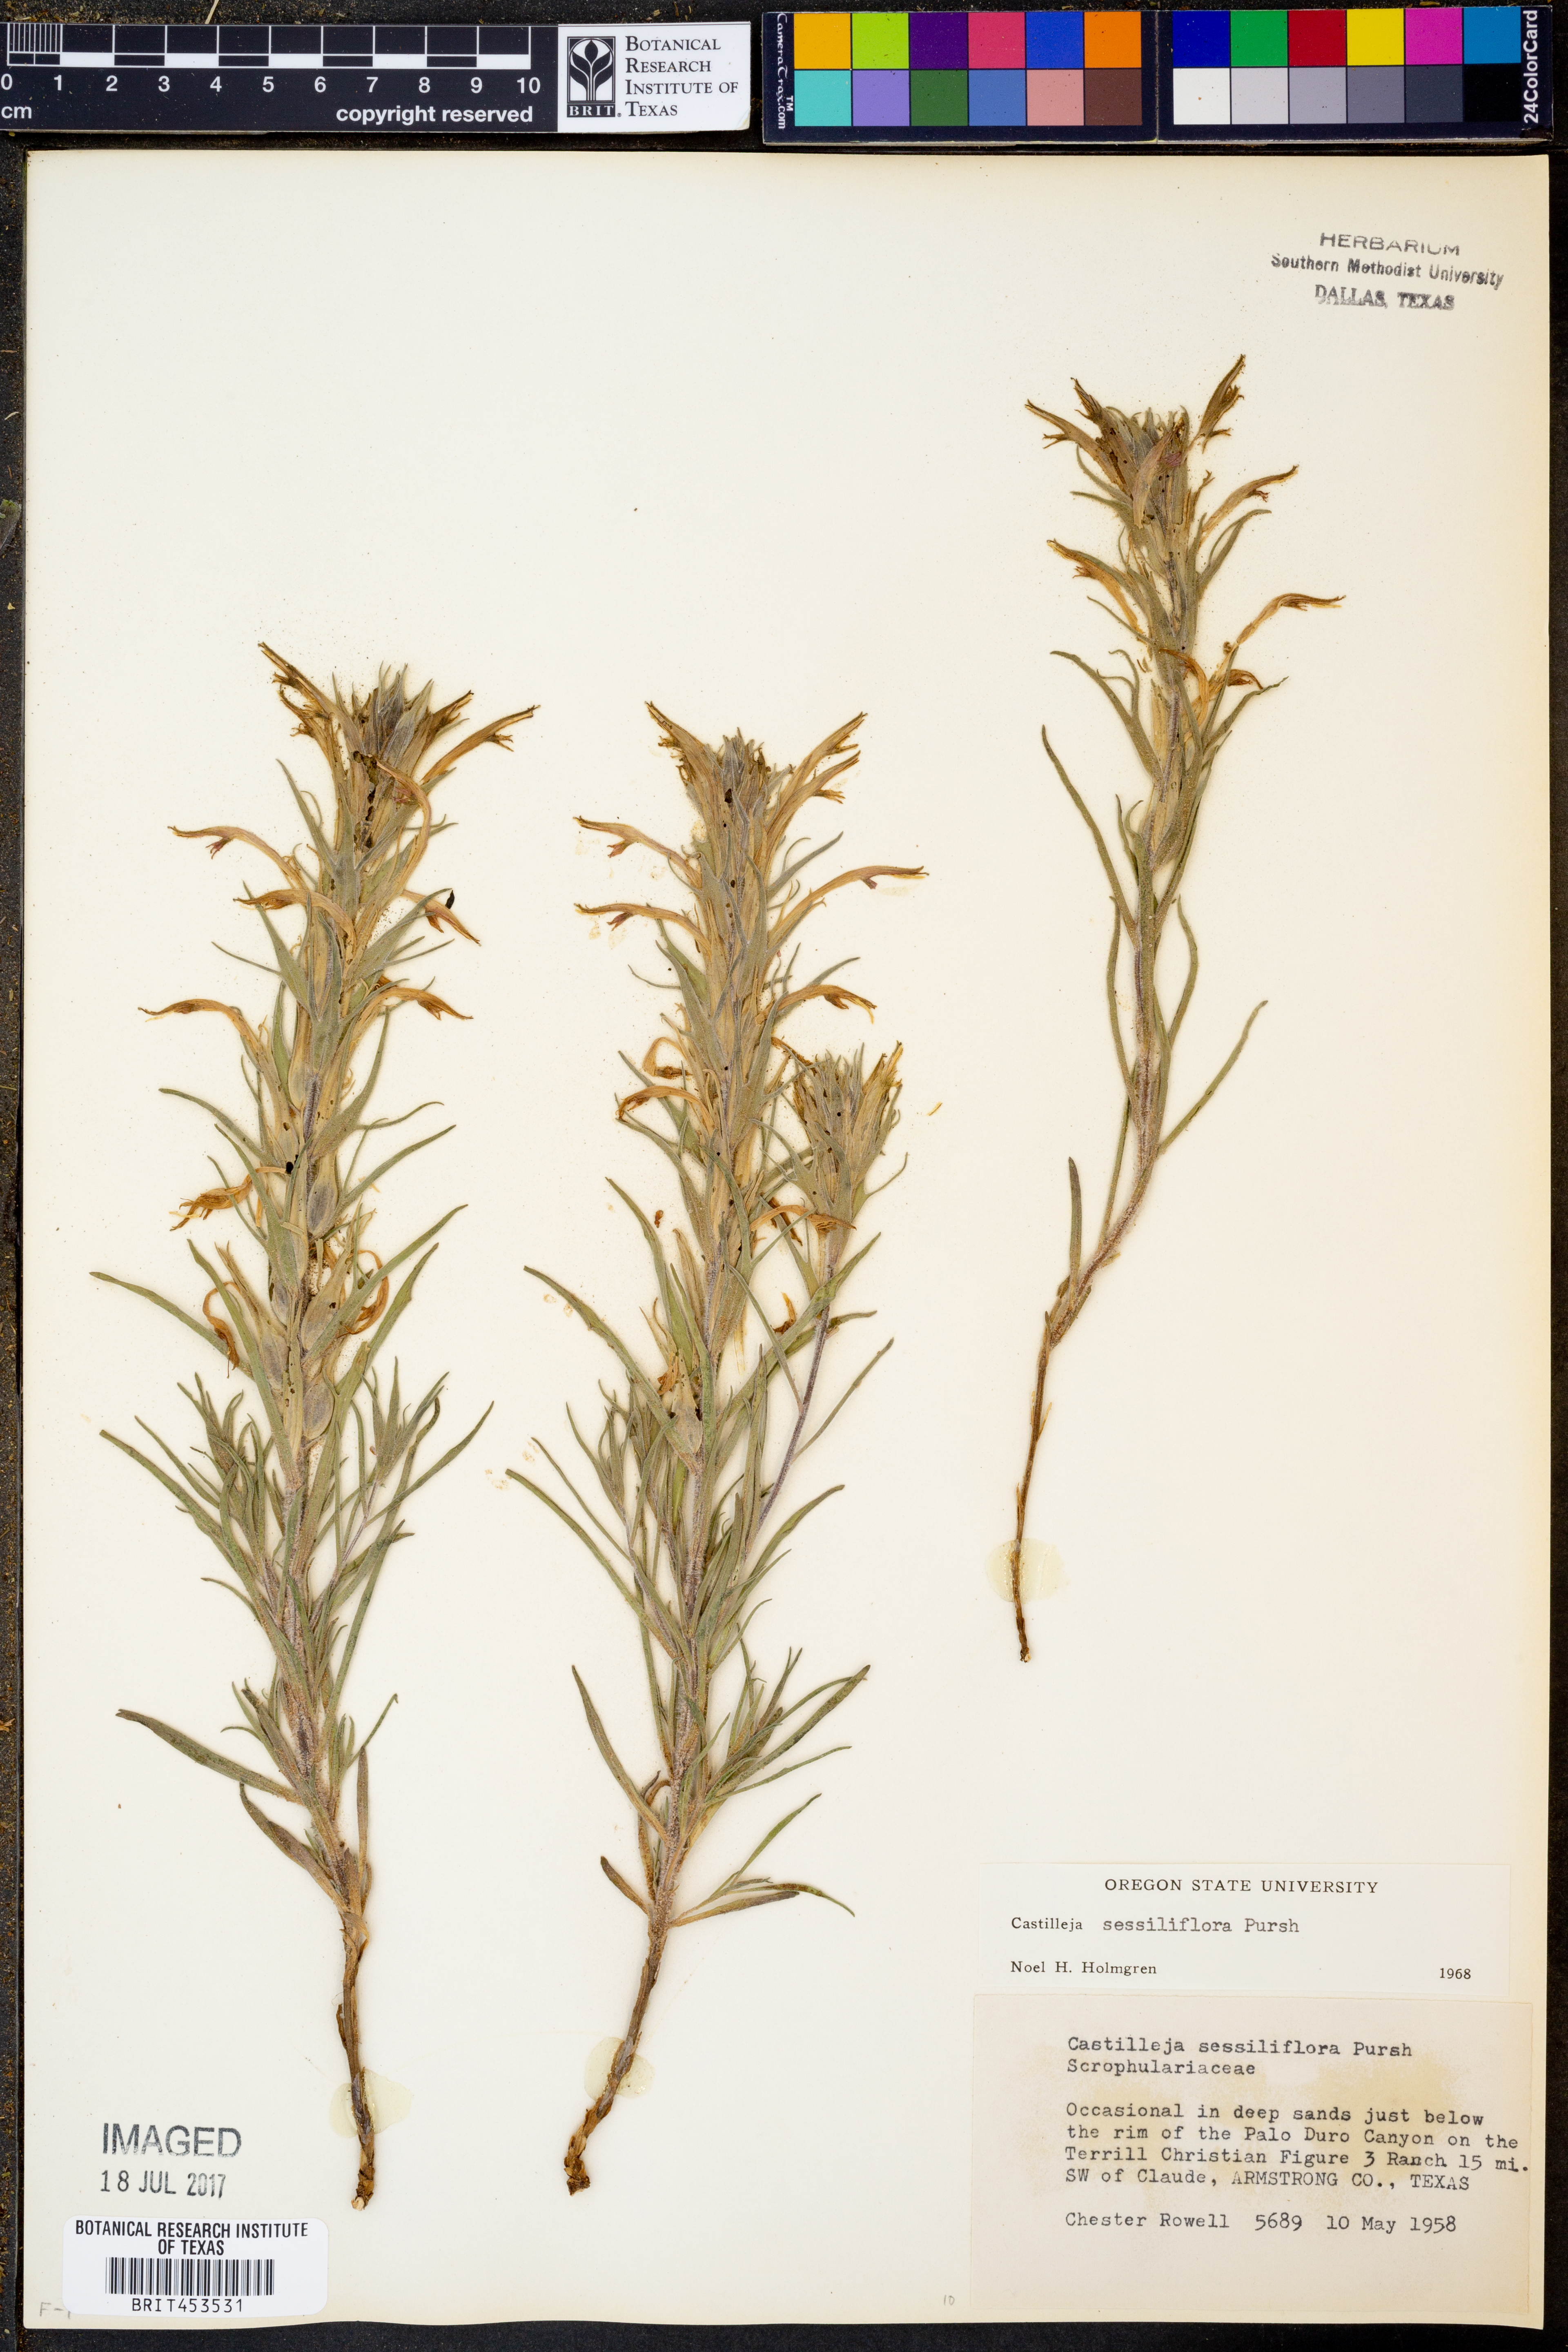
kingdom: Plantae
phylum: Tracheophyta
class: Magnoliopsida
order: Lamiales
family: Orobanchaceae
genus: Castilleja
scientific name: Castilleja sessiliflora
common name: Downy paintbrush
